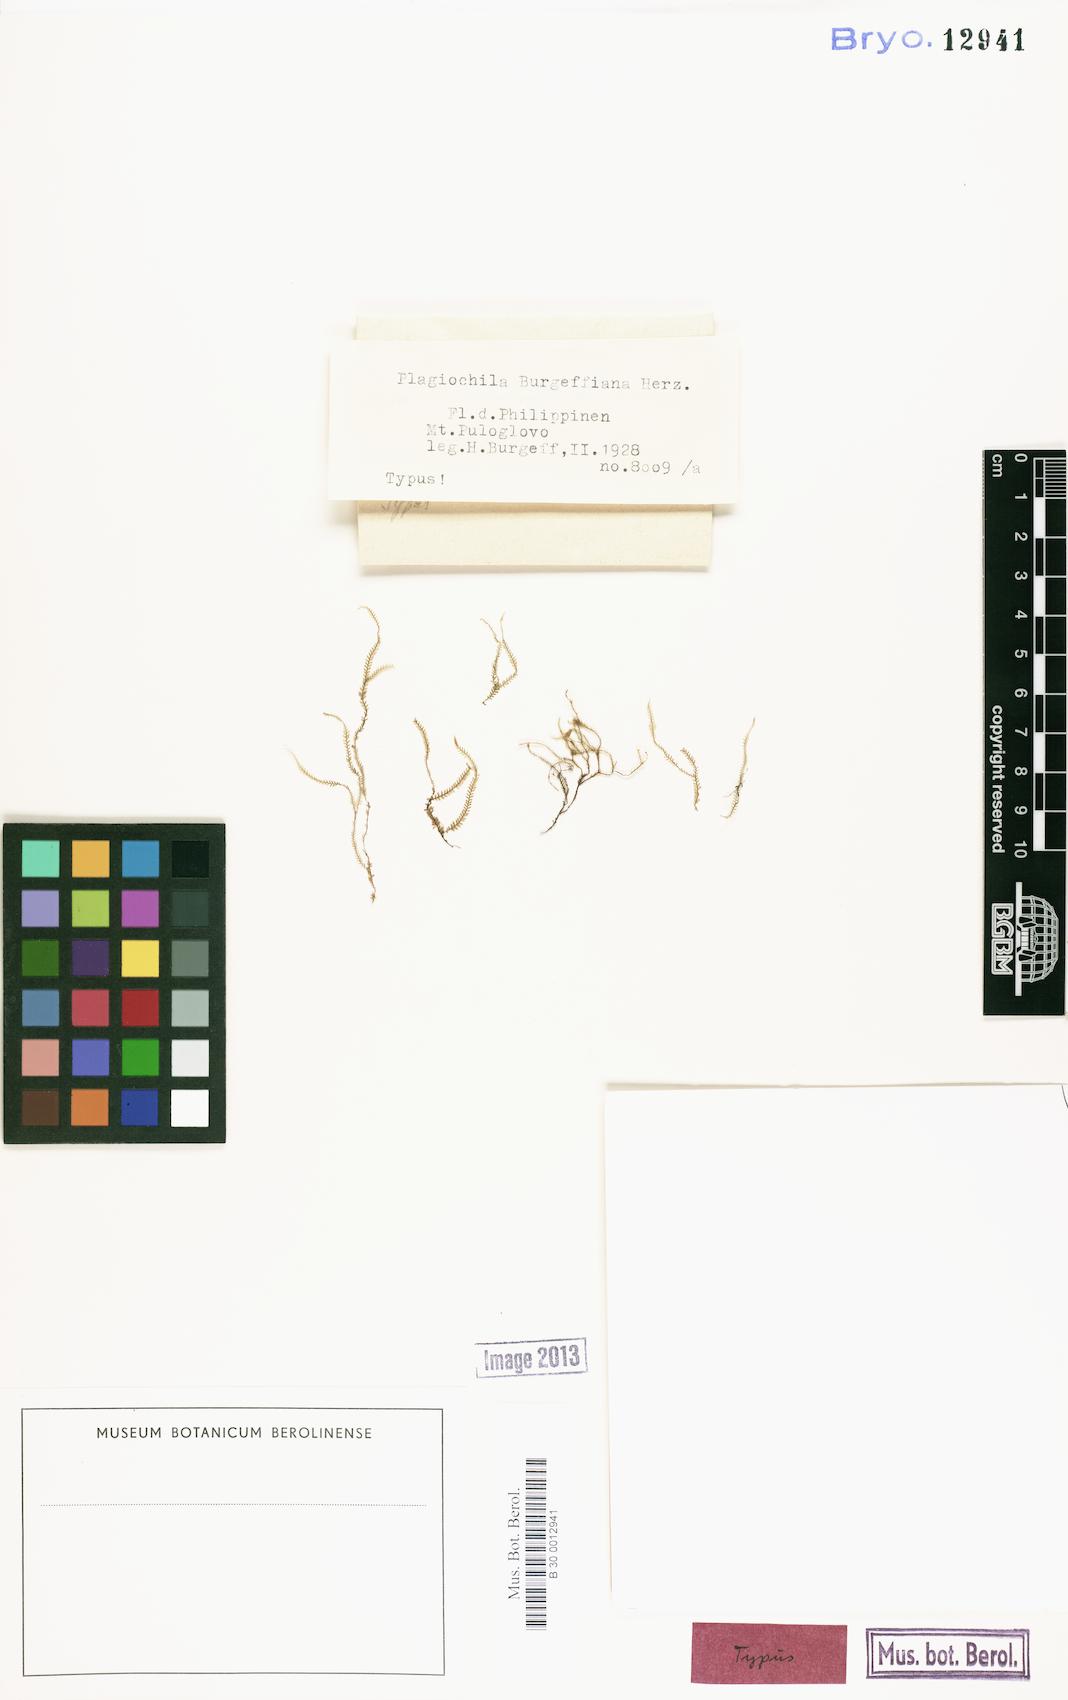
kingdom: Plantae
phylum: Marchantiophyta
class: Jungermanniopsida
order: Jungermanniales
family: Plagiochilaceae
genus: Chiastocaulon
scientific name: Chiastocaulon dendroides
